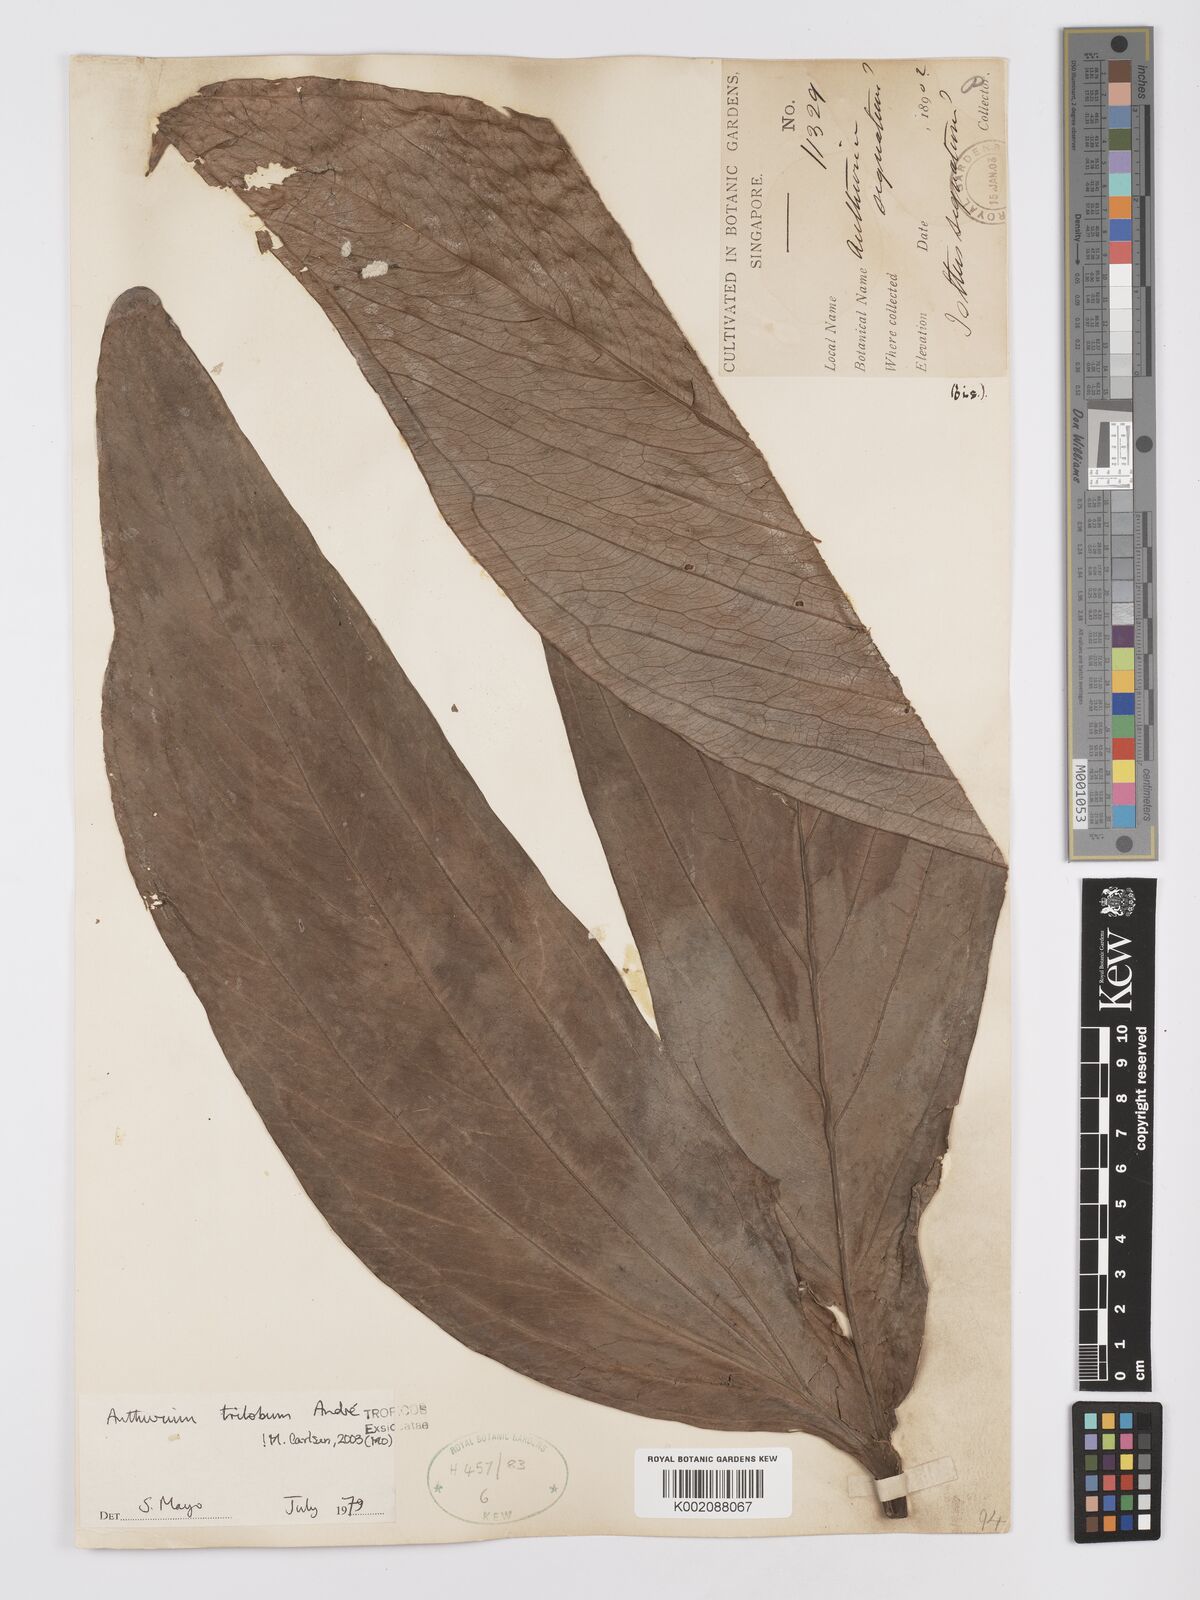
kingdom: Plantae
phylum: Tracheophyta
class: Liliopsida
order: Alismatales
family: Araceae
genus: Anthurium
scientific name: Anthurium trilobum
